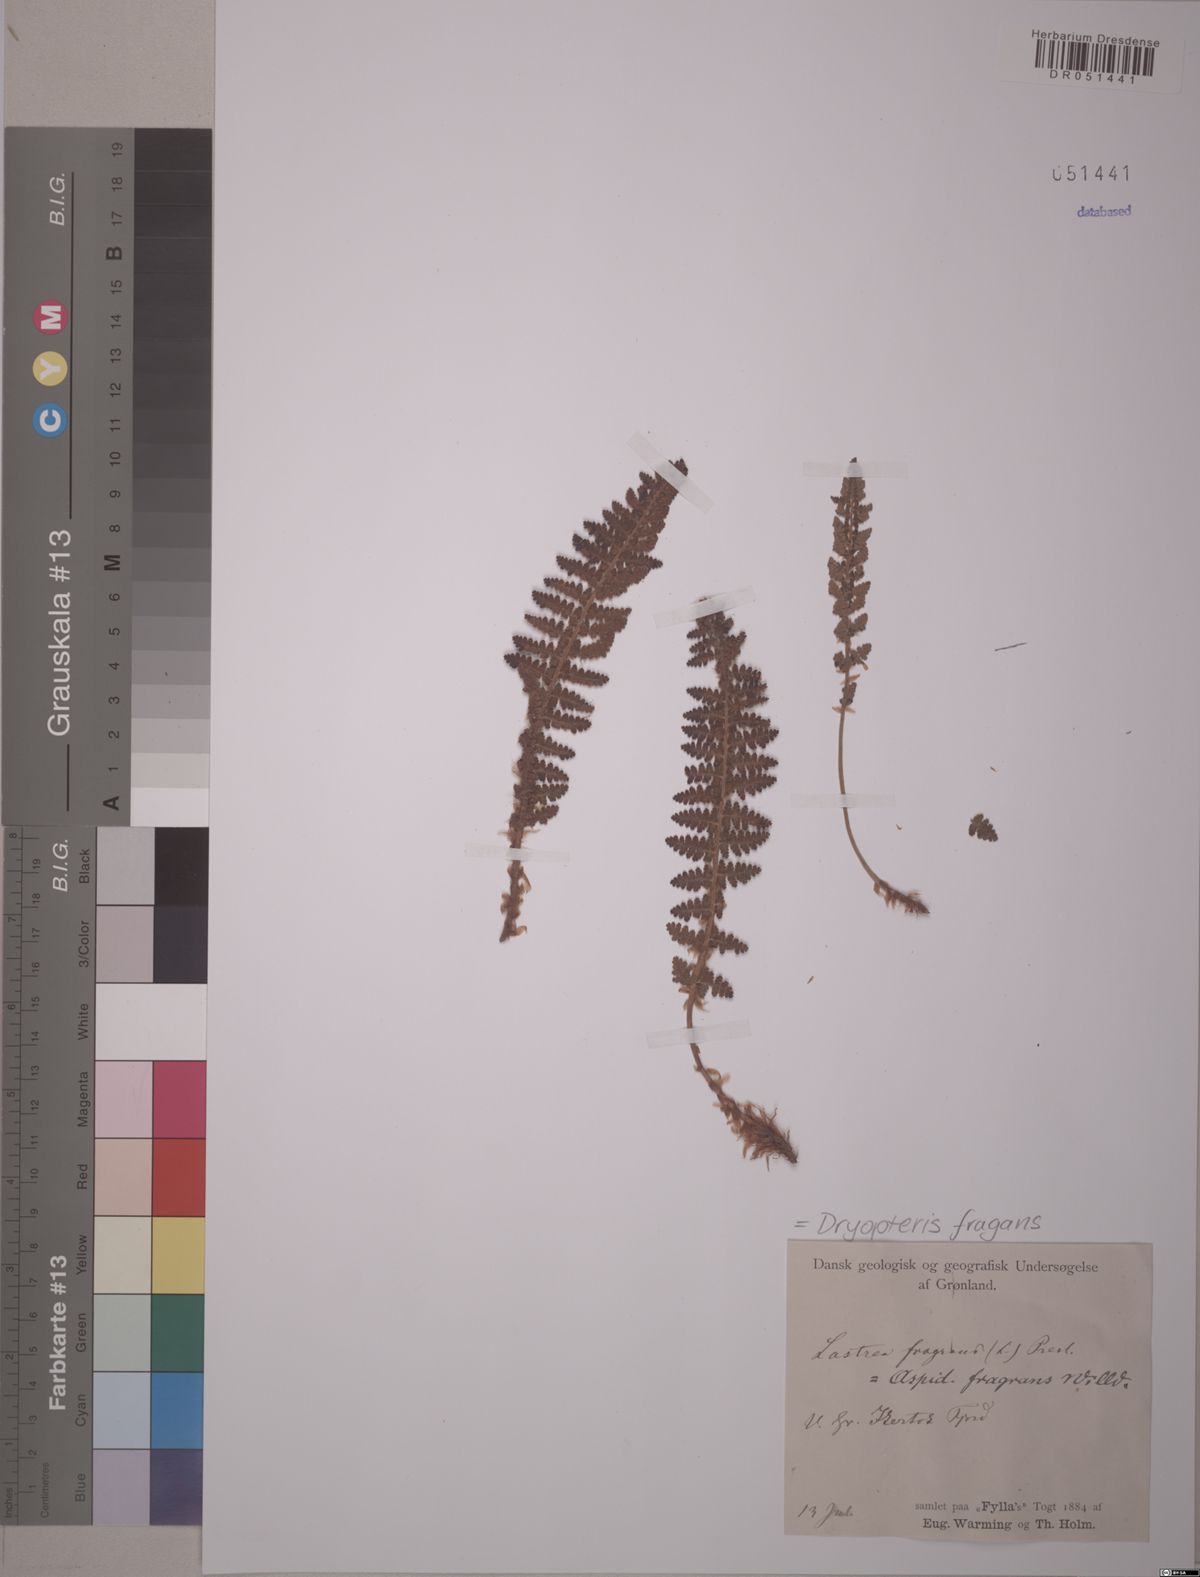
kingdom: Plantae
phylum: Tracheophyta
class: Polypodiopsida
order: Polypodiales
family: Dryopteridaceae
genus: Dryopteris
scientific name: Dryopteris fragrans
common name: Fragrant wood fern
